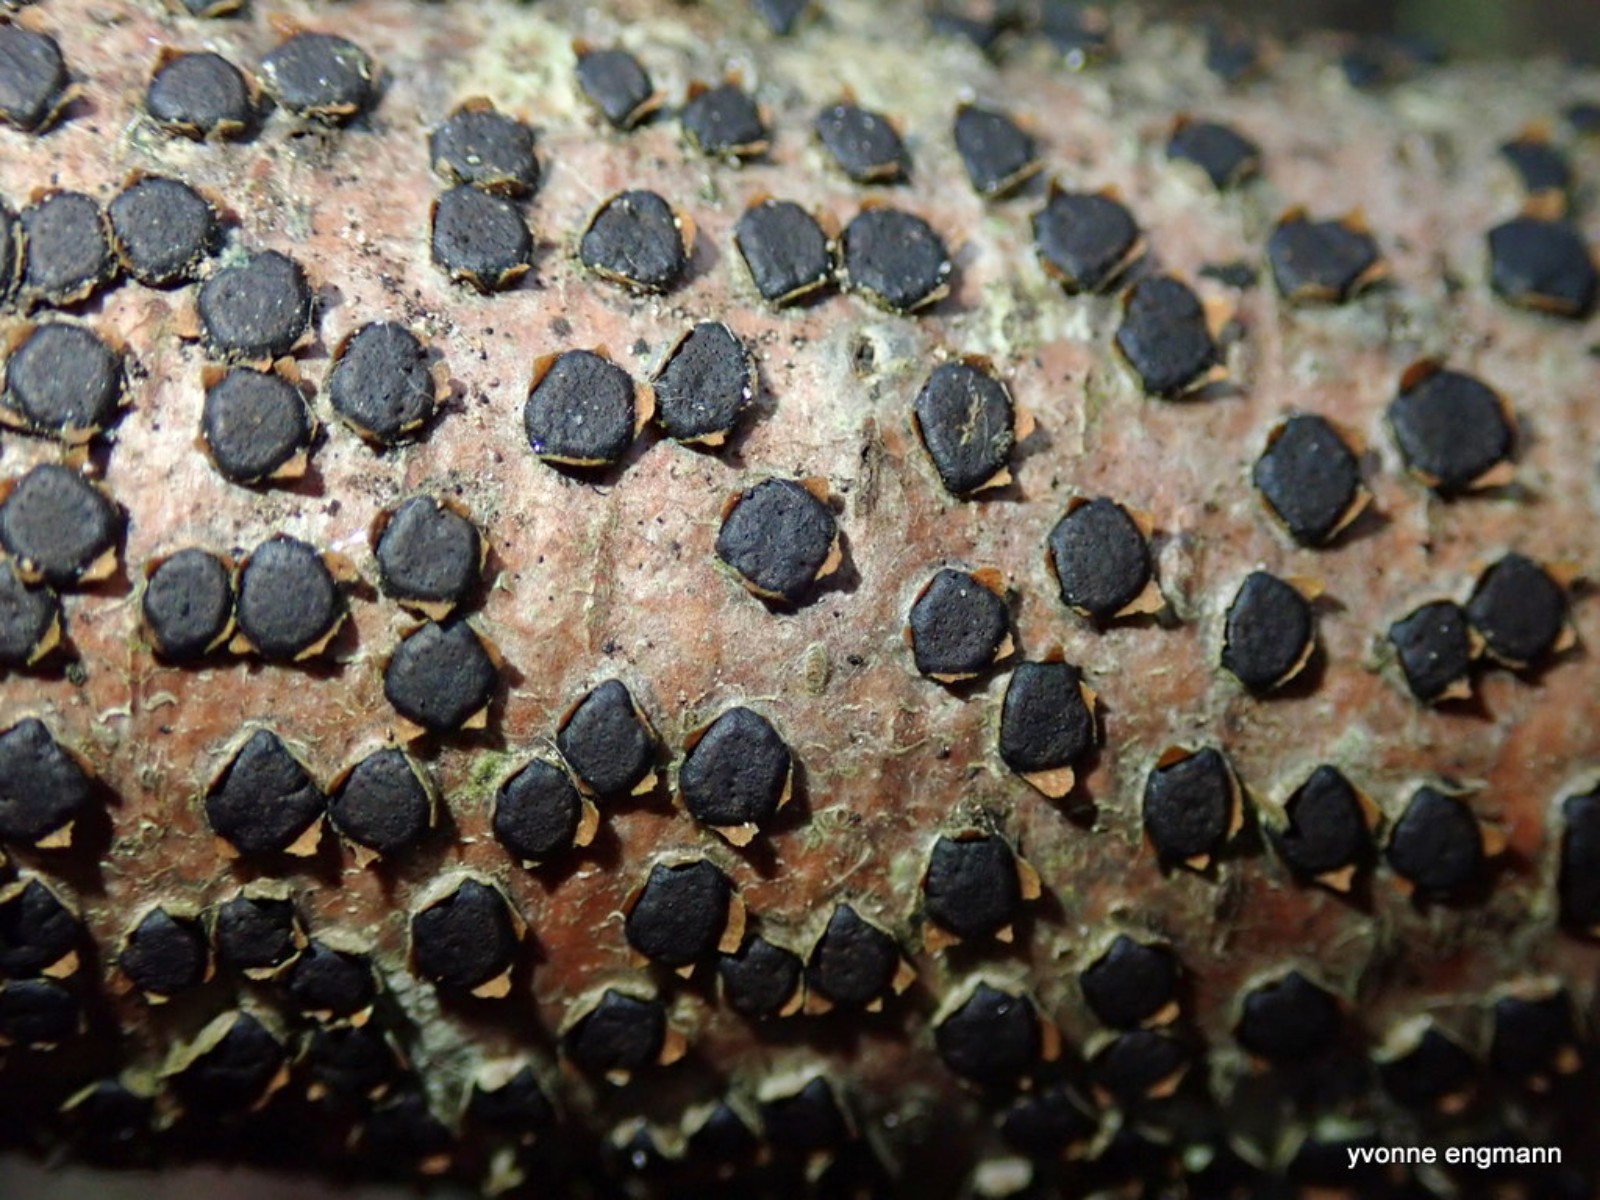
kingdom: Fungi
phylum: Ascomycota
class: Sordariomycetes
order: Xylariales
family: Diatrypaceae
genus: Diatrype
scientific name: Diatrype disciformis
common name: kant-kulskorpe
